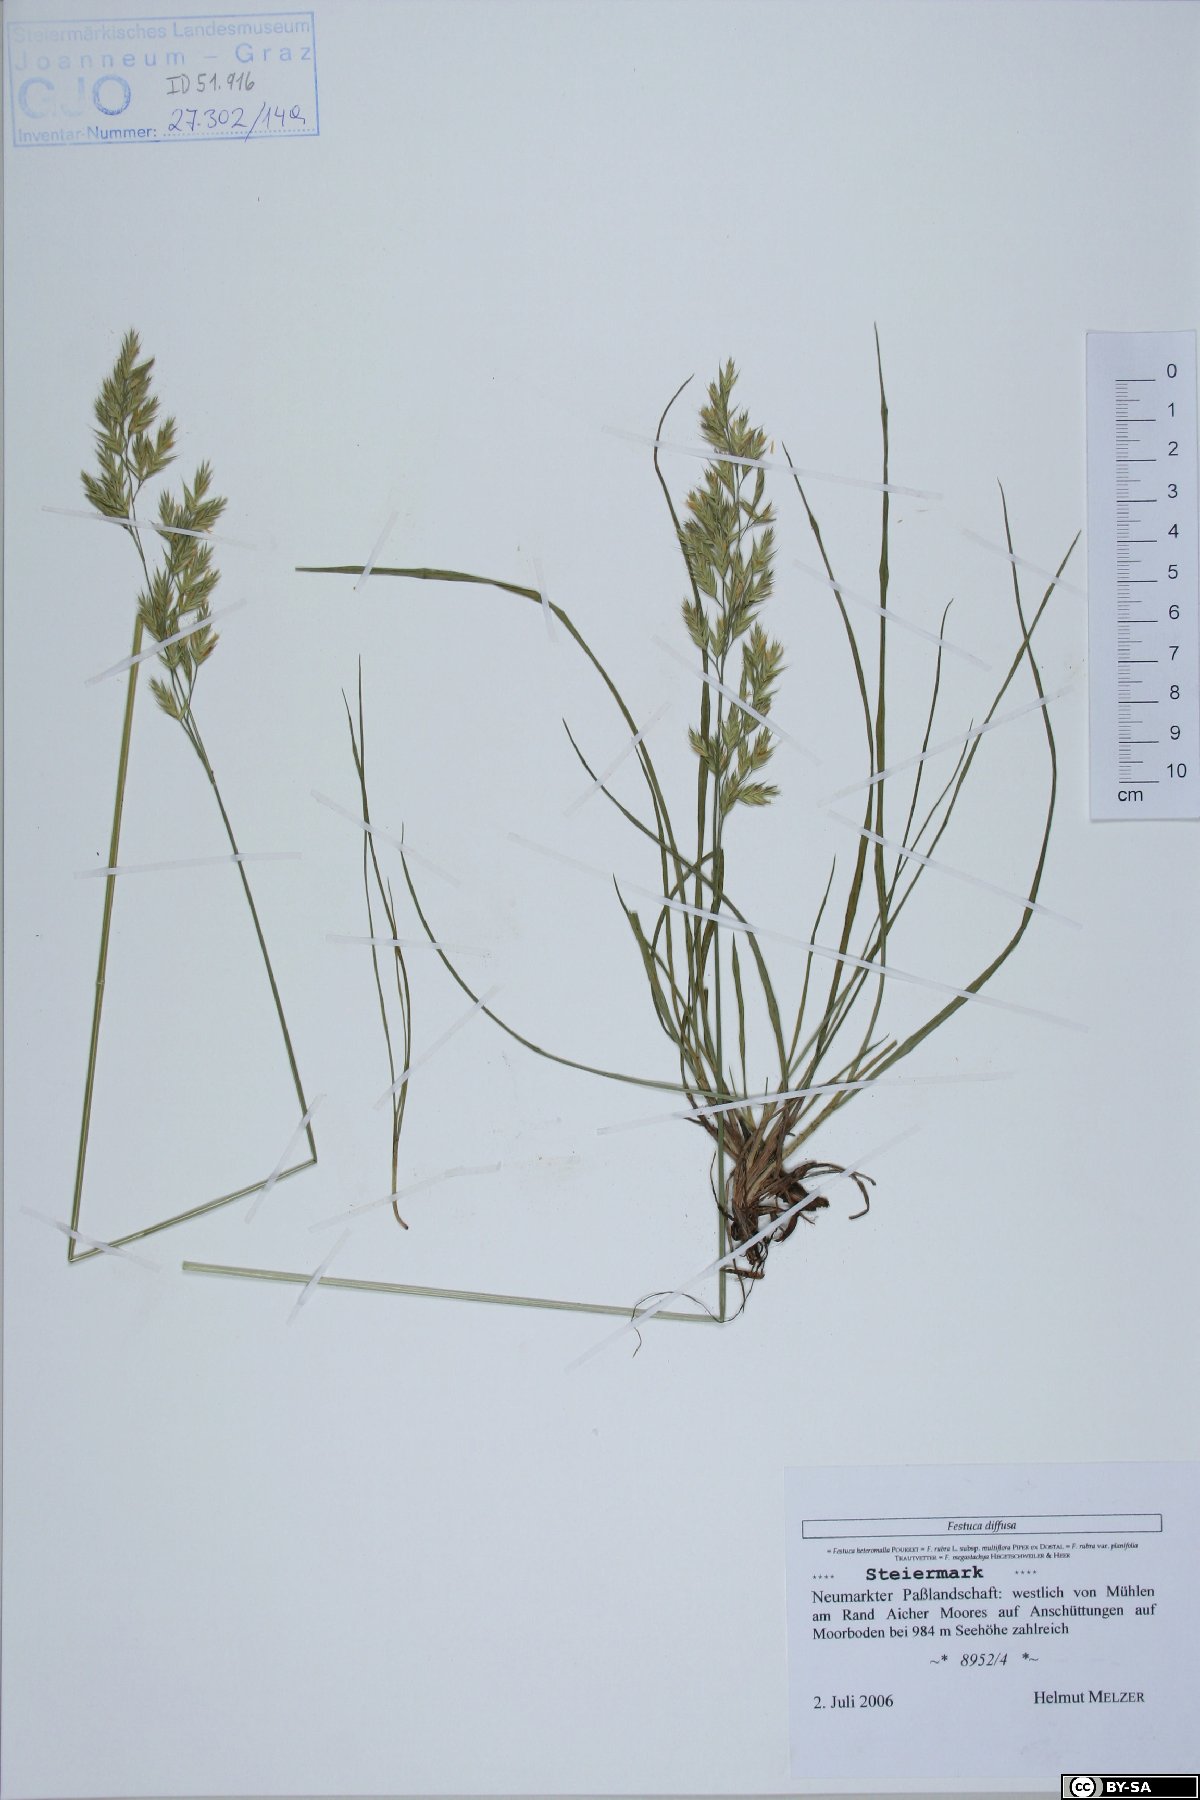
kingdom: Plantae
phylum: Tracheophyta
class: Liliopsida
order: Poales
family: Poaceae
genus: Festuca
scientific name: Festuca heteromalla
